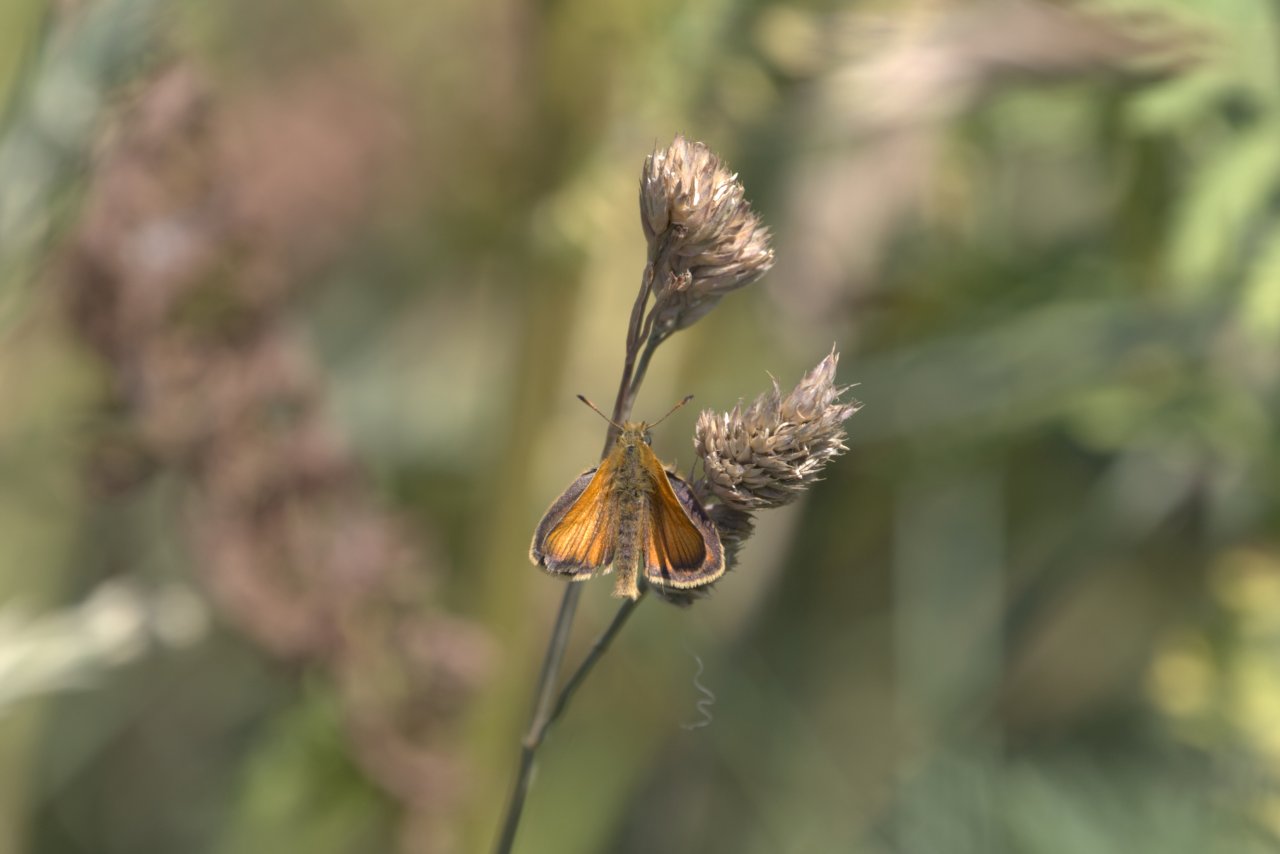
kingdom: Animalia
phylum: Arthropoda
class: Insecta
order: Lepidoptera
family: Hesperiidae
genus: Thymelicus
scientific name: Thymelicus lineola
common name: European Skipper
